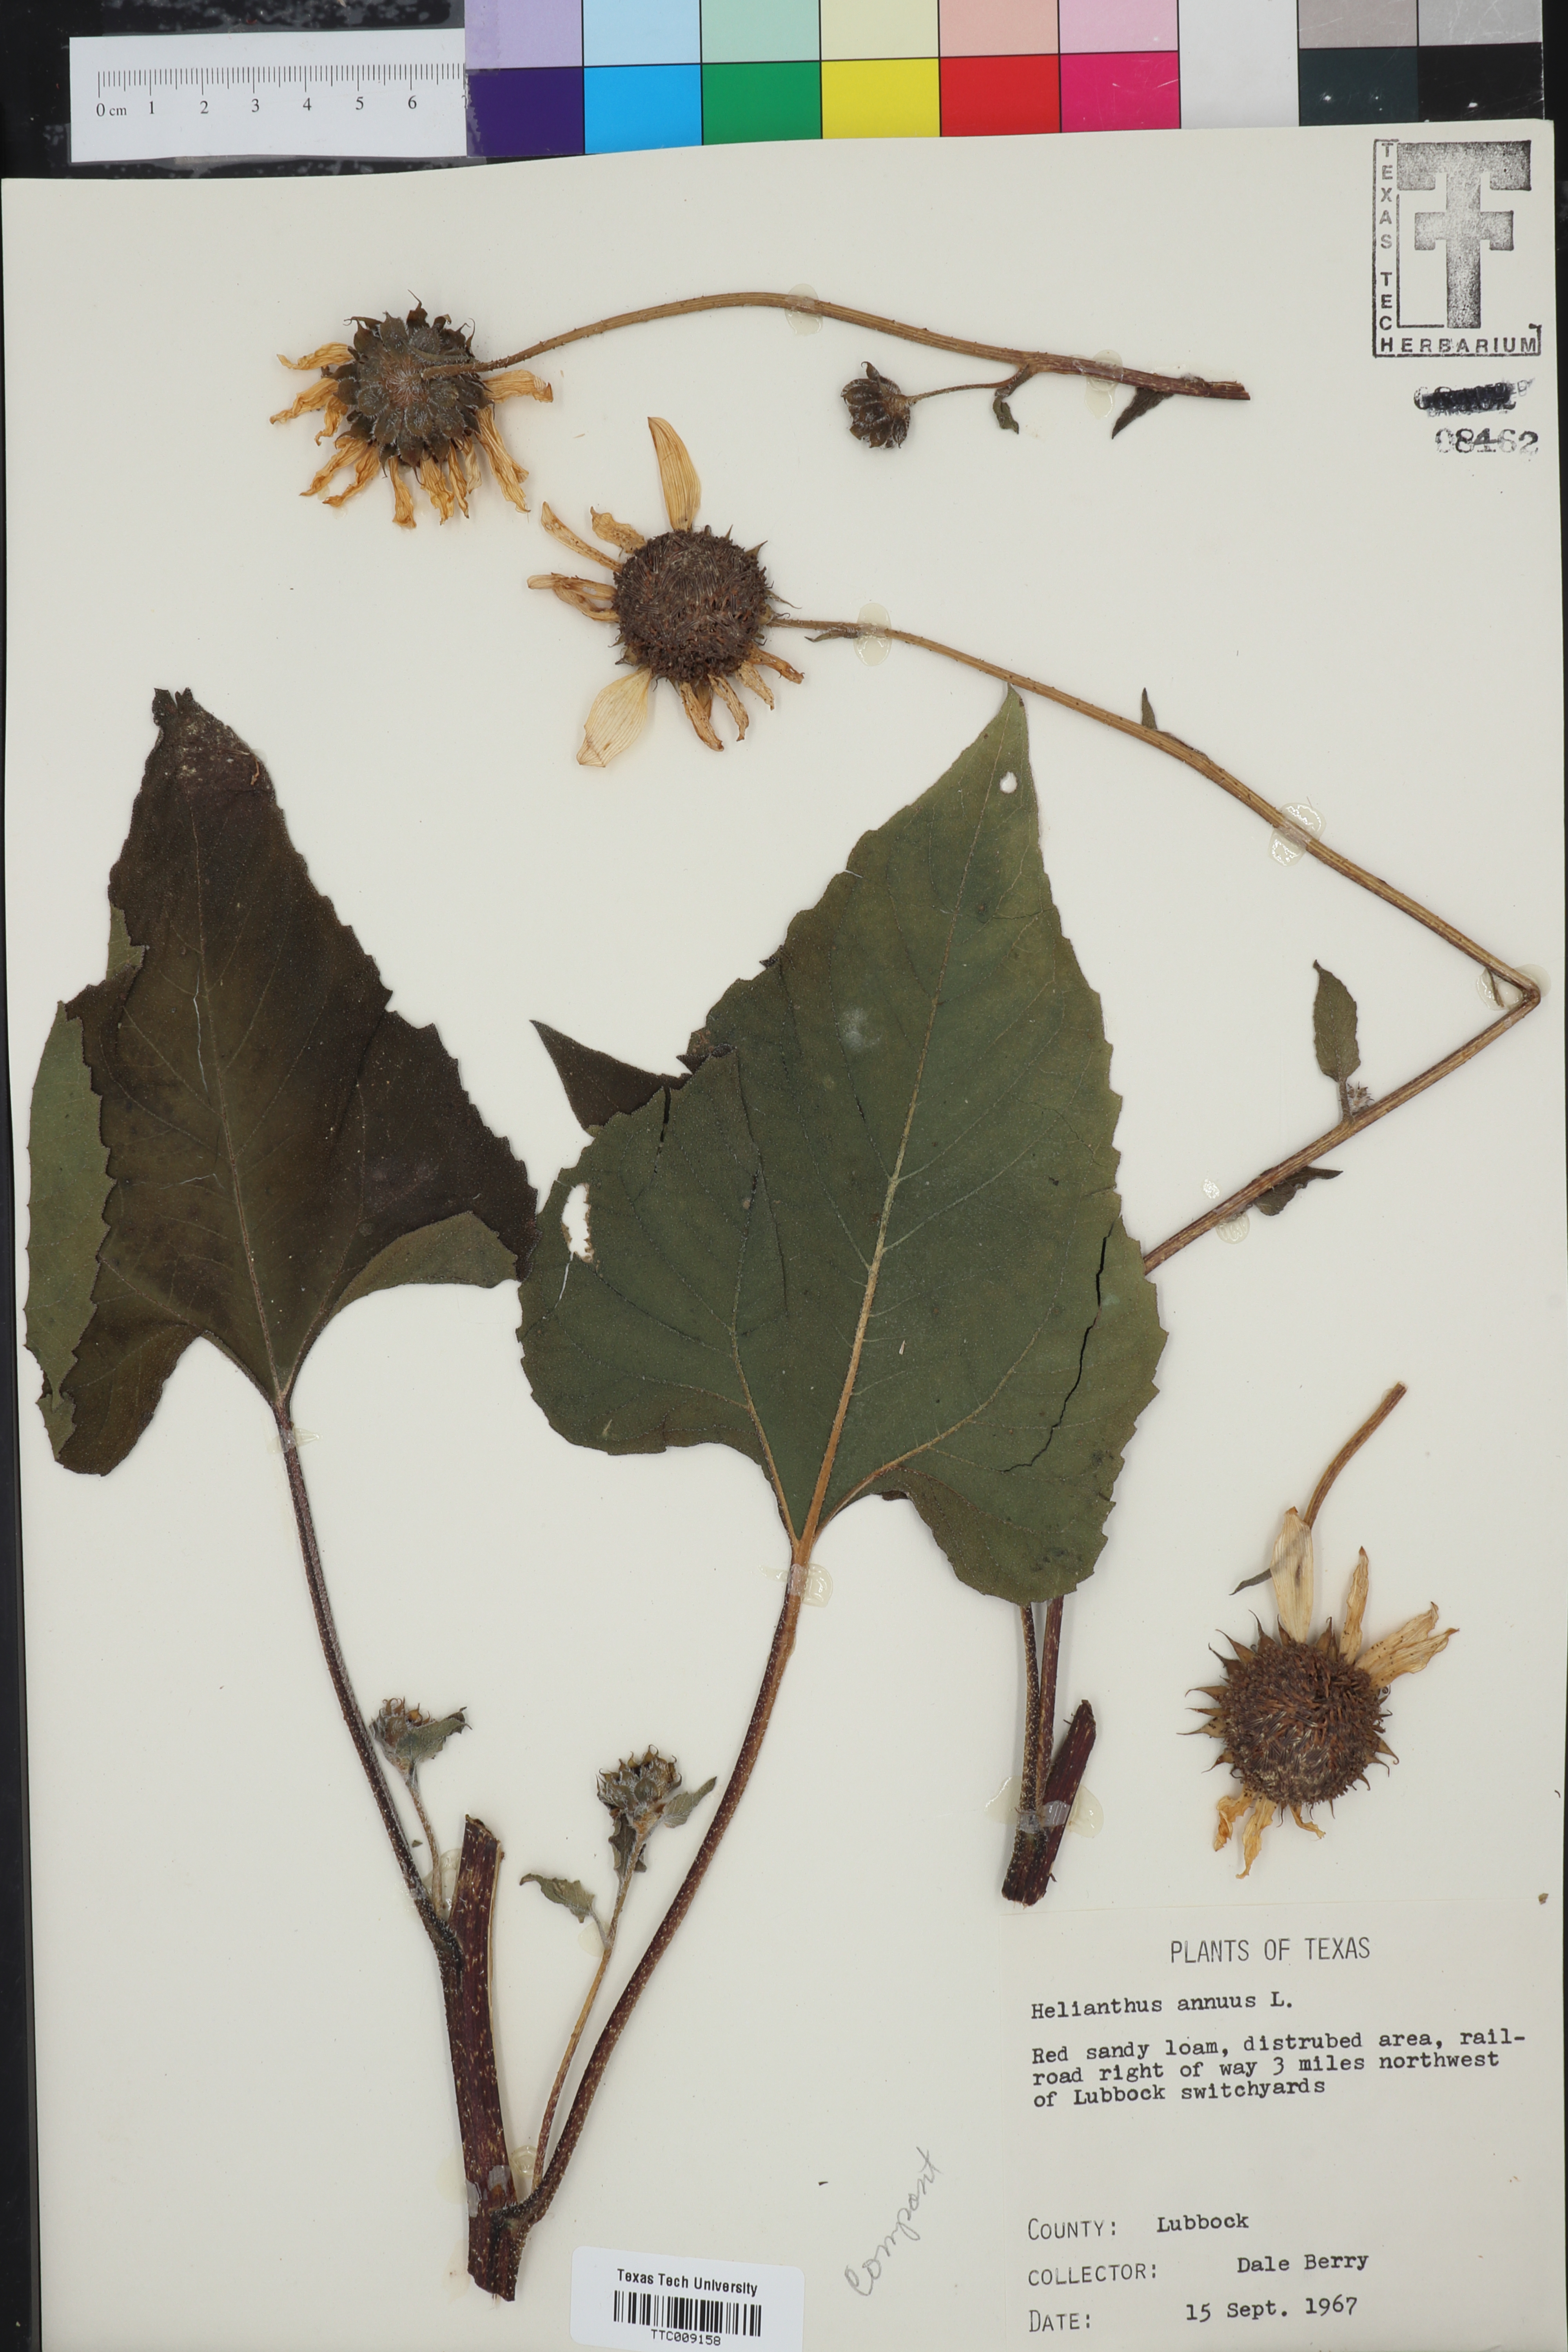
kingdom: Plantae
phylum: Tracheophyta
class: Magnoliopsida
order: Asterales
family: Asteraceae
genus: Helianthus
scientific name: Helianthus annuus
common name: Sunflower
